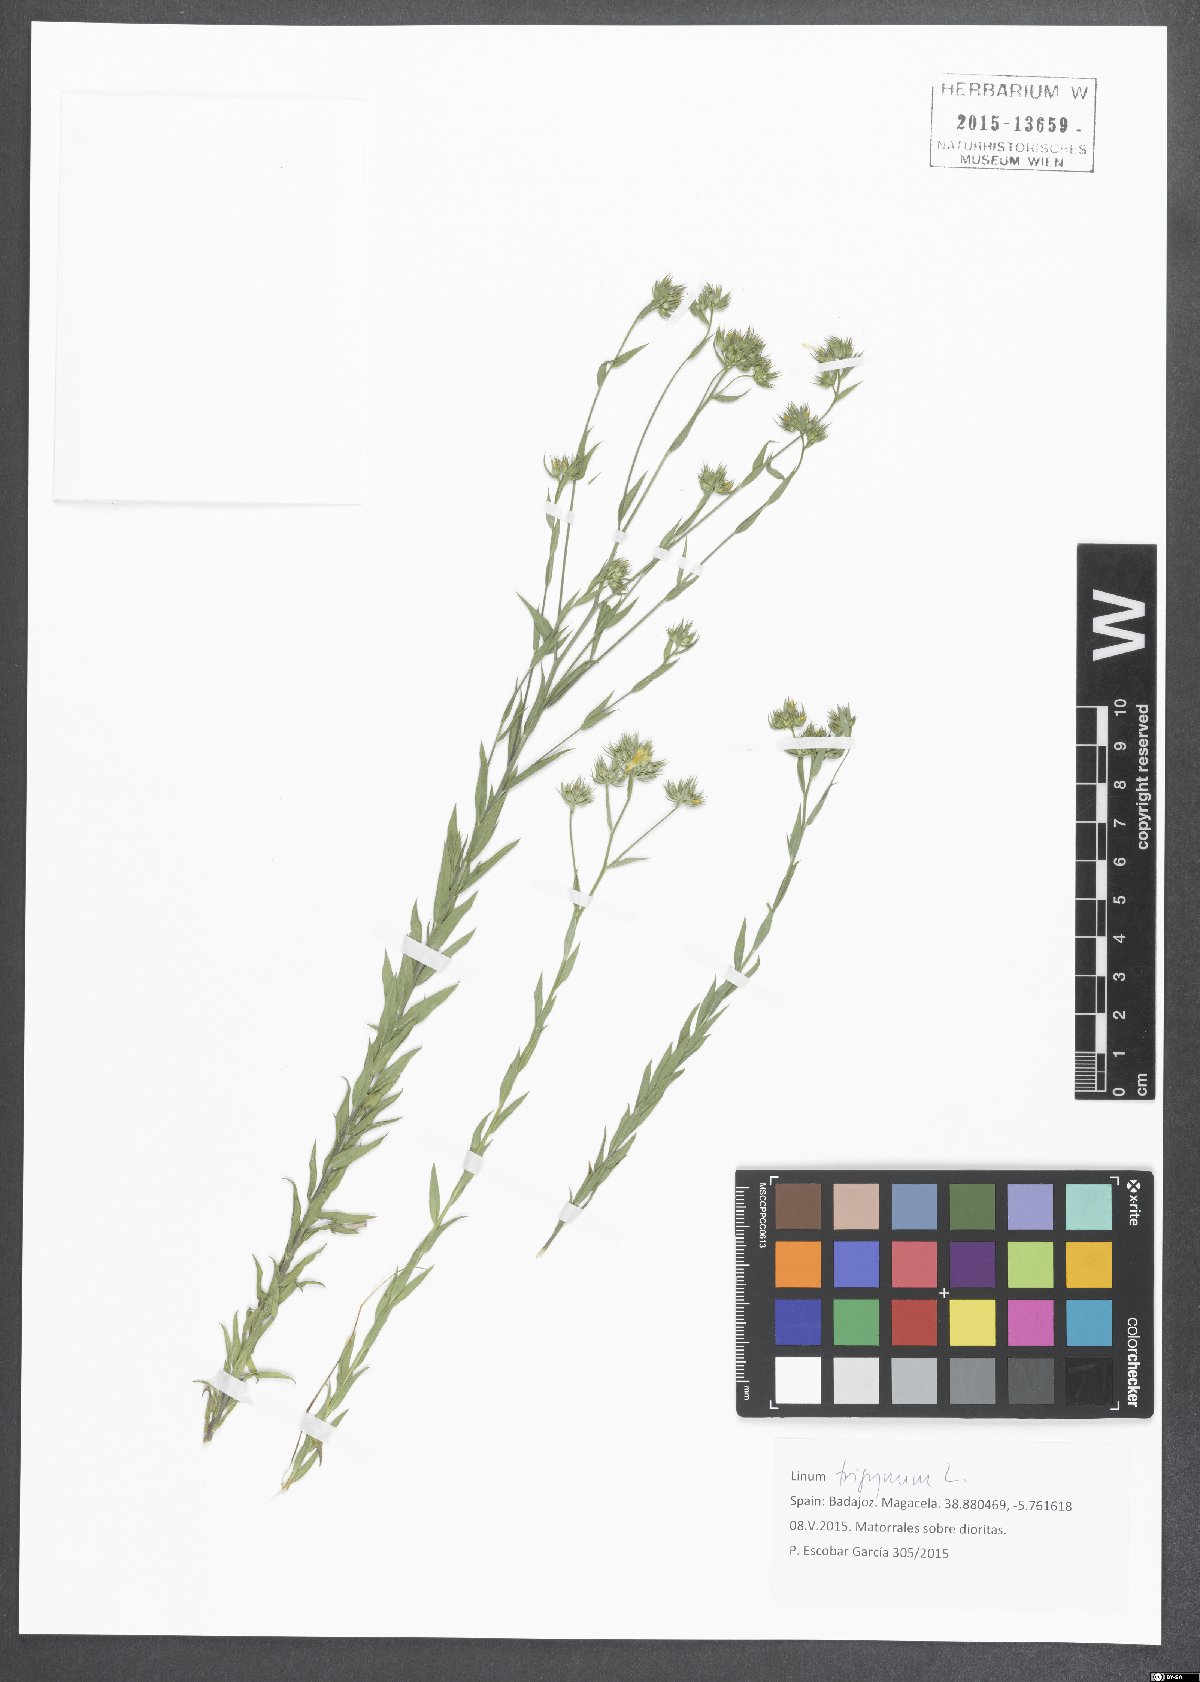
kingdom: Plantae
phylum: Tracheophyta
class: Magnoliopsida
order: Malpighiales
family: Linaceae
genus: Linum
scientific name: Linum trigynum
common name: French flax
